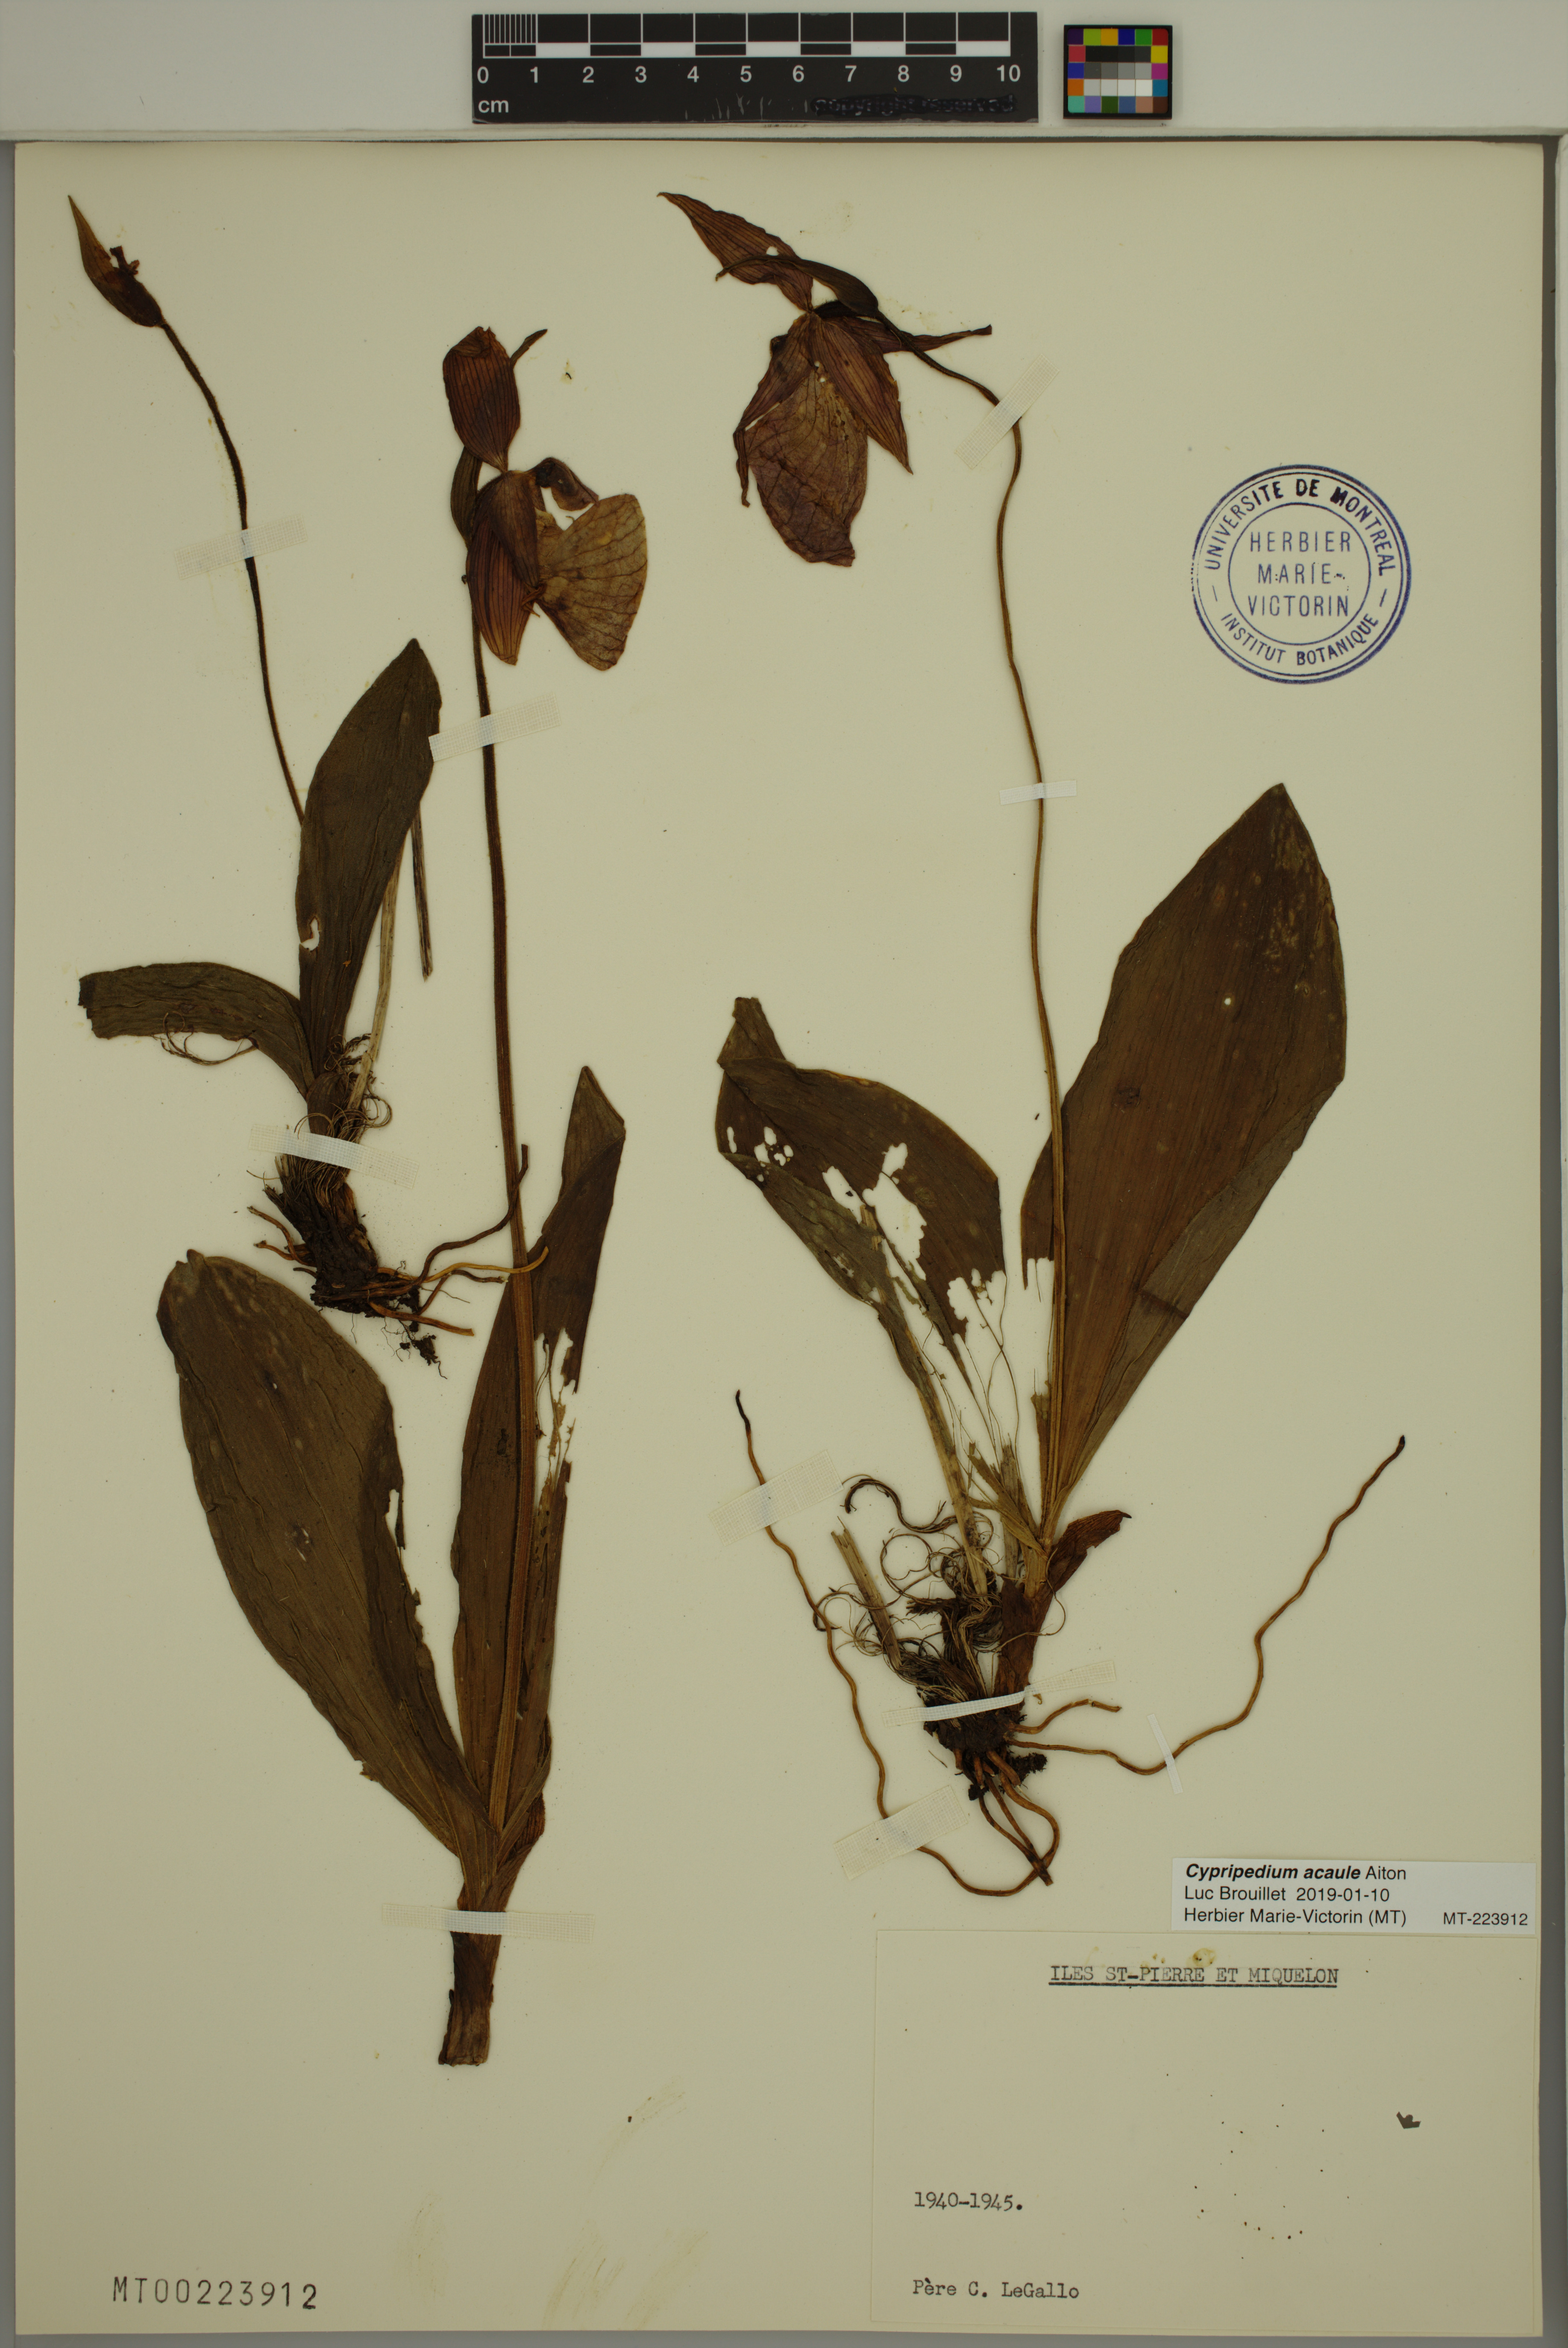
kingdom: Plantae
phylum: Tracheophyta
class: Liliopsida
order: Asparagales
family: Orchidaceae
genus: Cypripedium
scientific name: Cypripedium acaule
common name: Pink lady's-slipper
